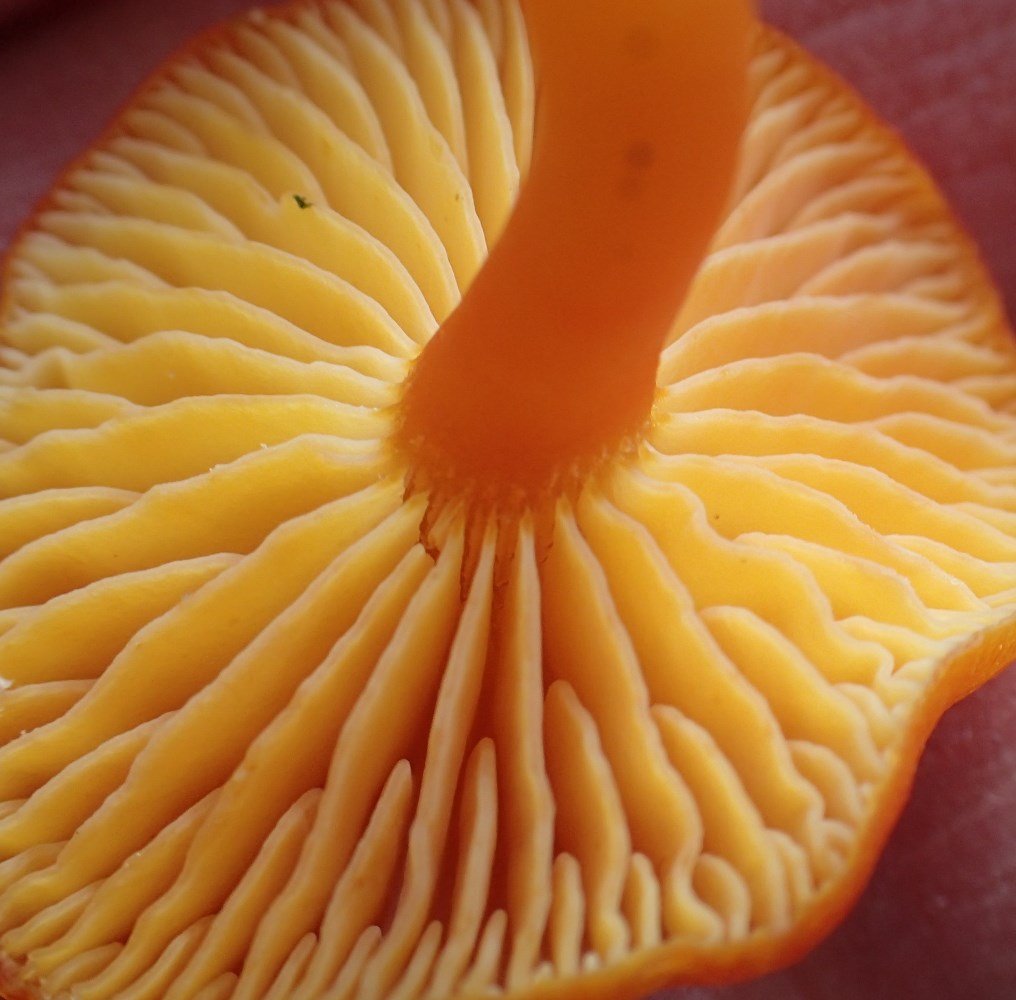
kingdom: Fungi
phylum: Basidiomycota
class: Agaricomycetes
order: Agaricales
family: Hygrophoraceae
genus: Hygrocybe
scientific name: Hygrocybe miniata
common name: mønje-vokshat
